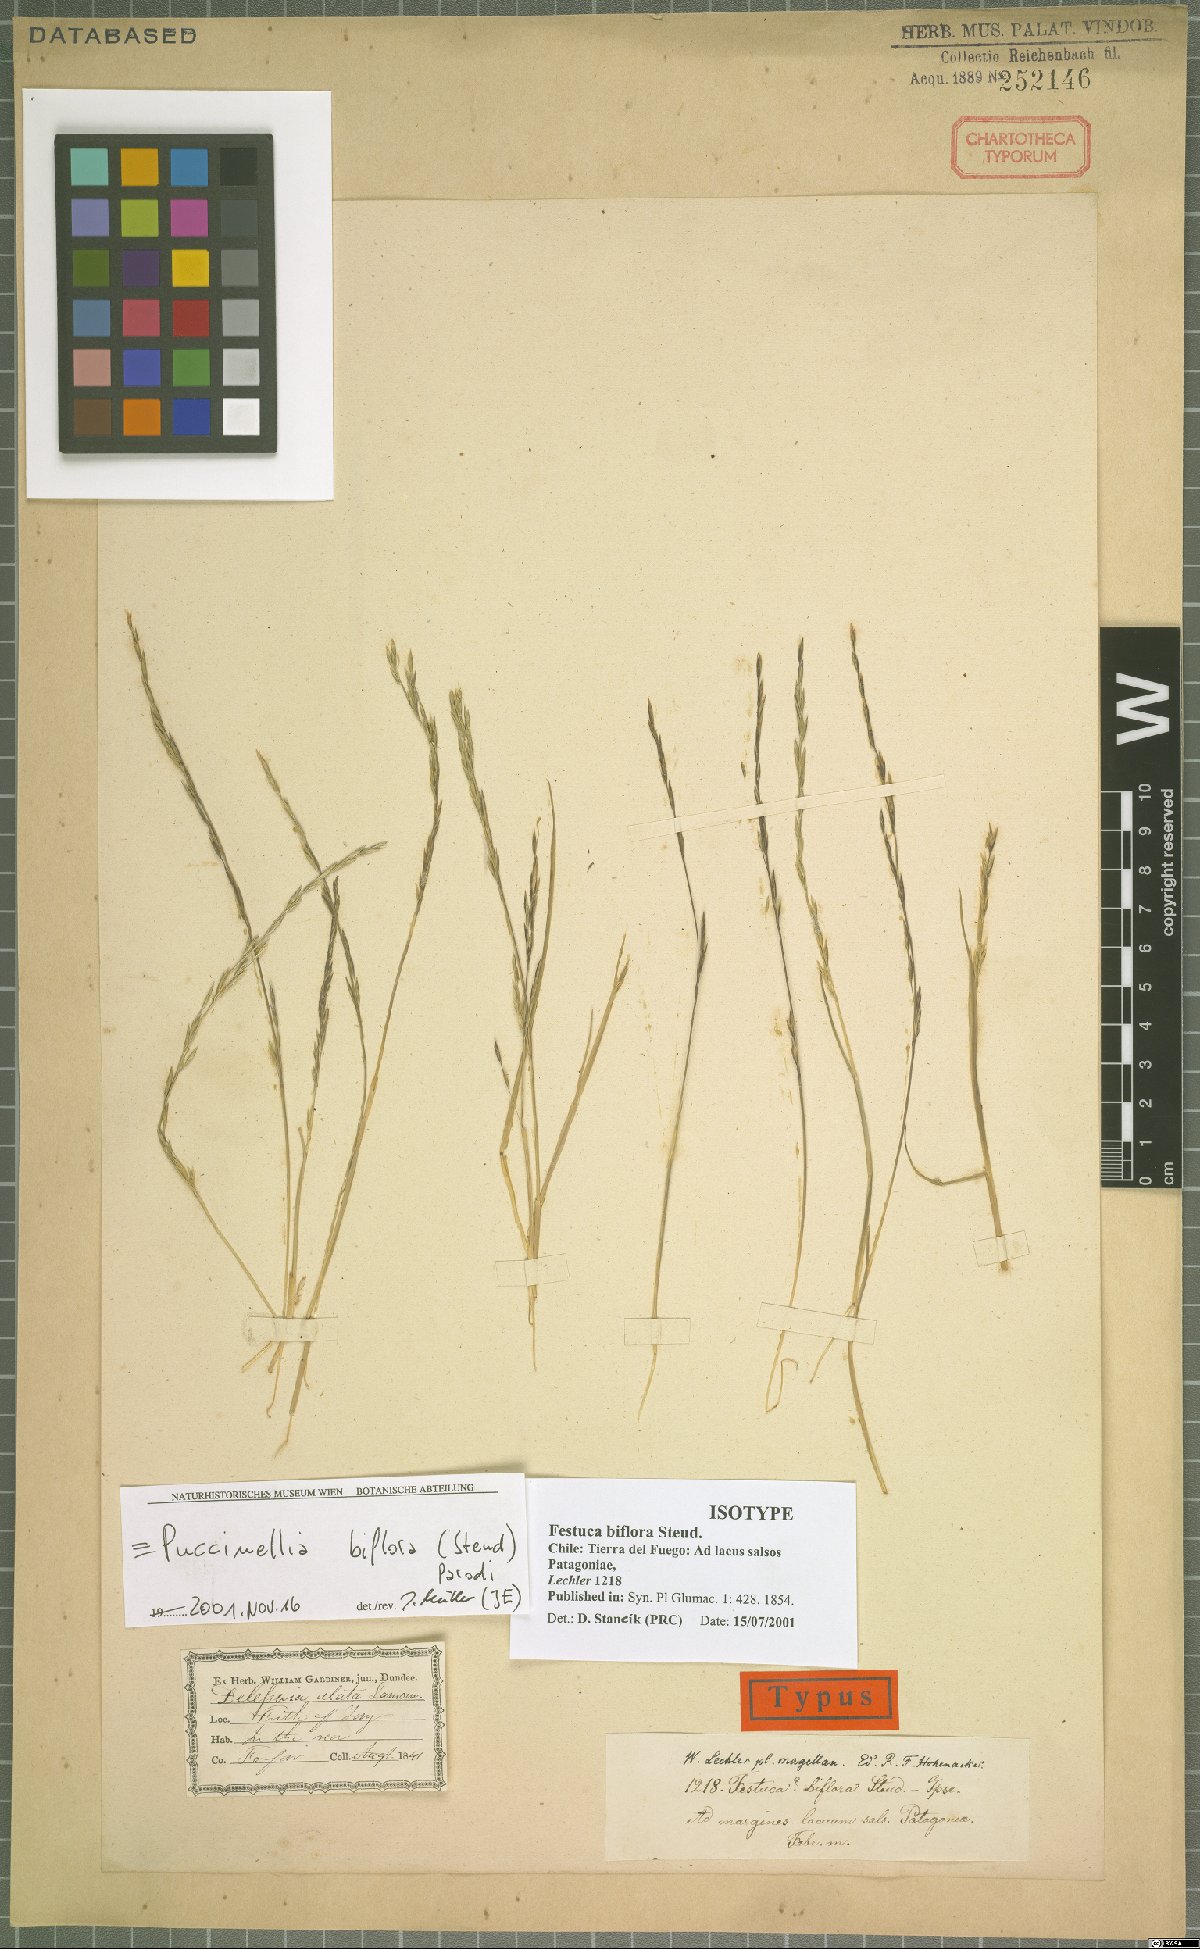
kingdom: Plantae
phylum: Tracheophyta
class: Liliopsida
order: Poales
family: Poaceae
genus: Puccinellia
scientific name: Puccinellia biflora
